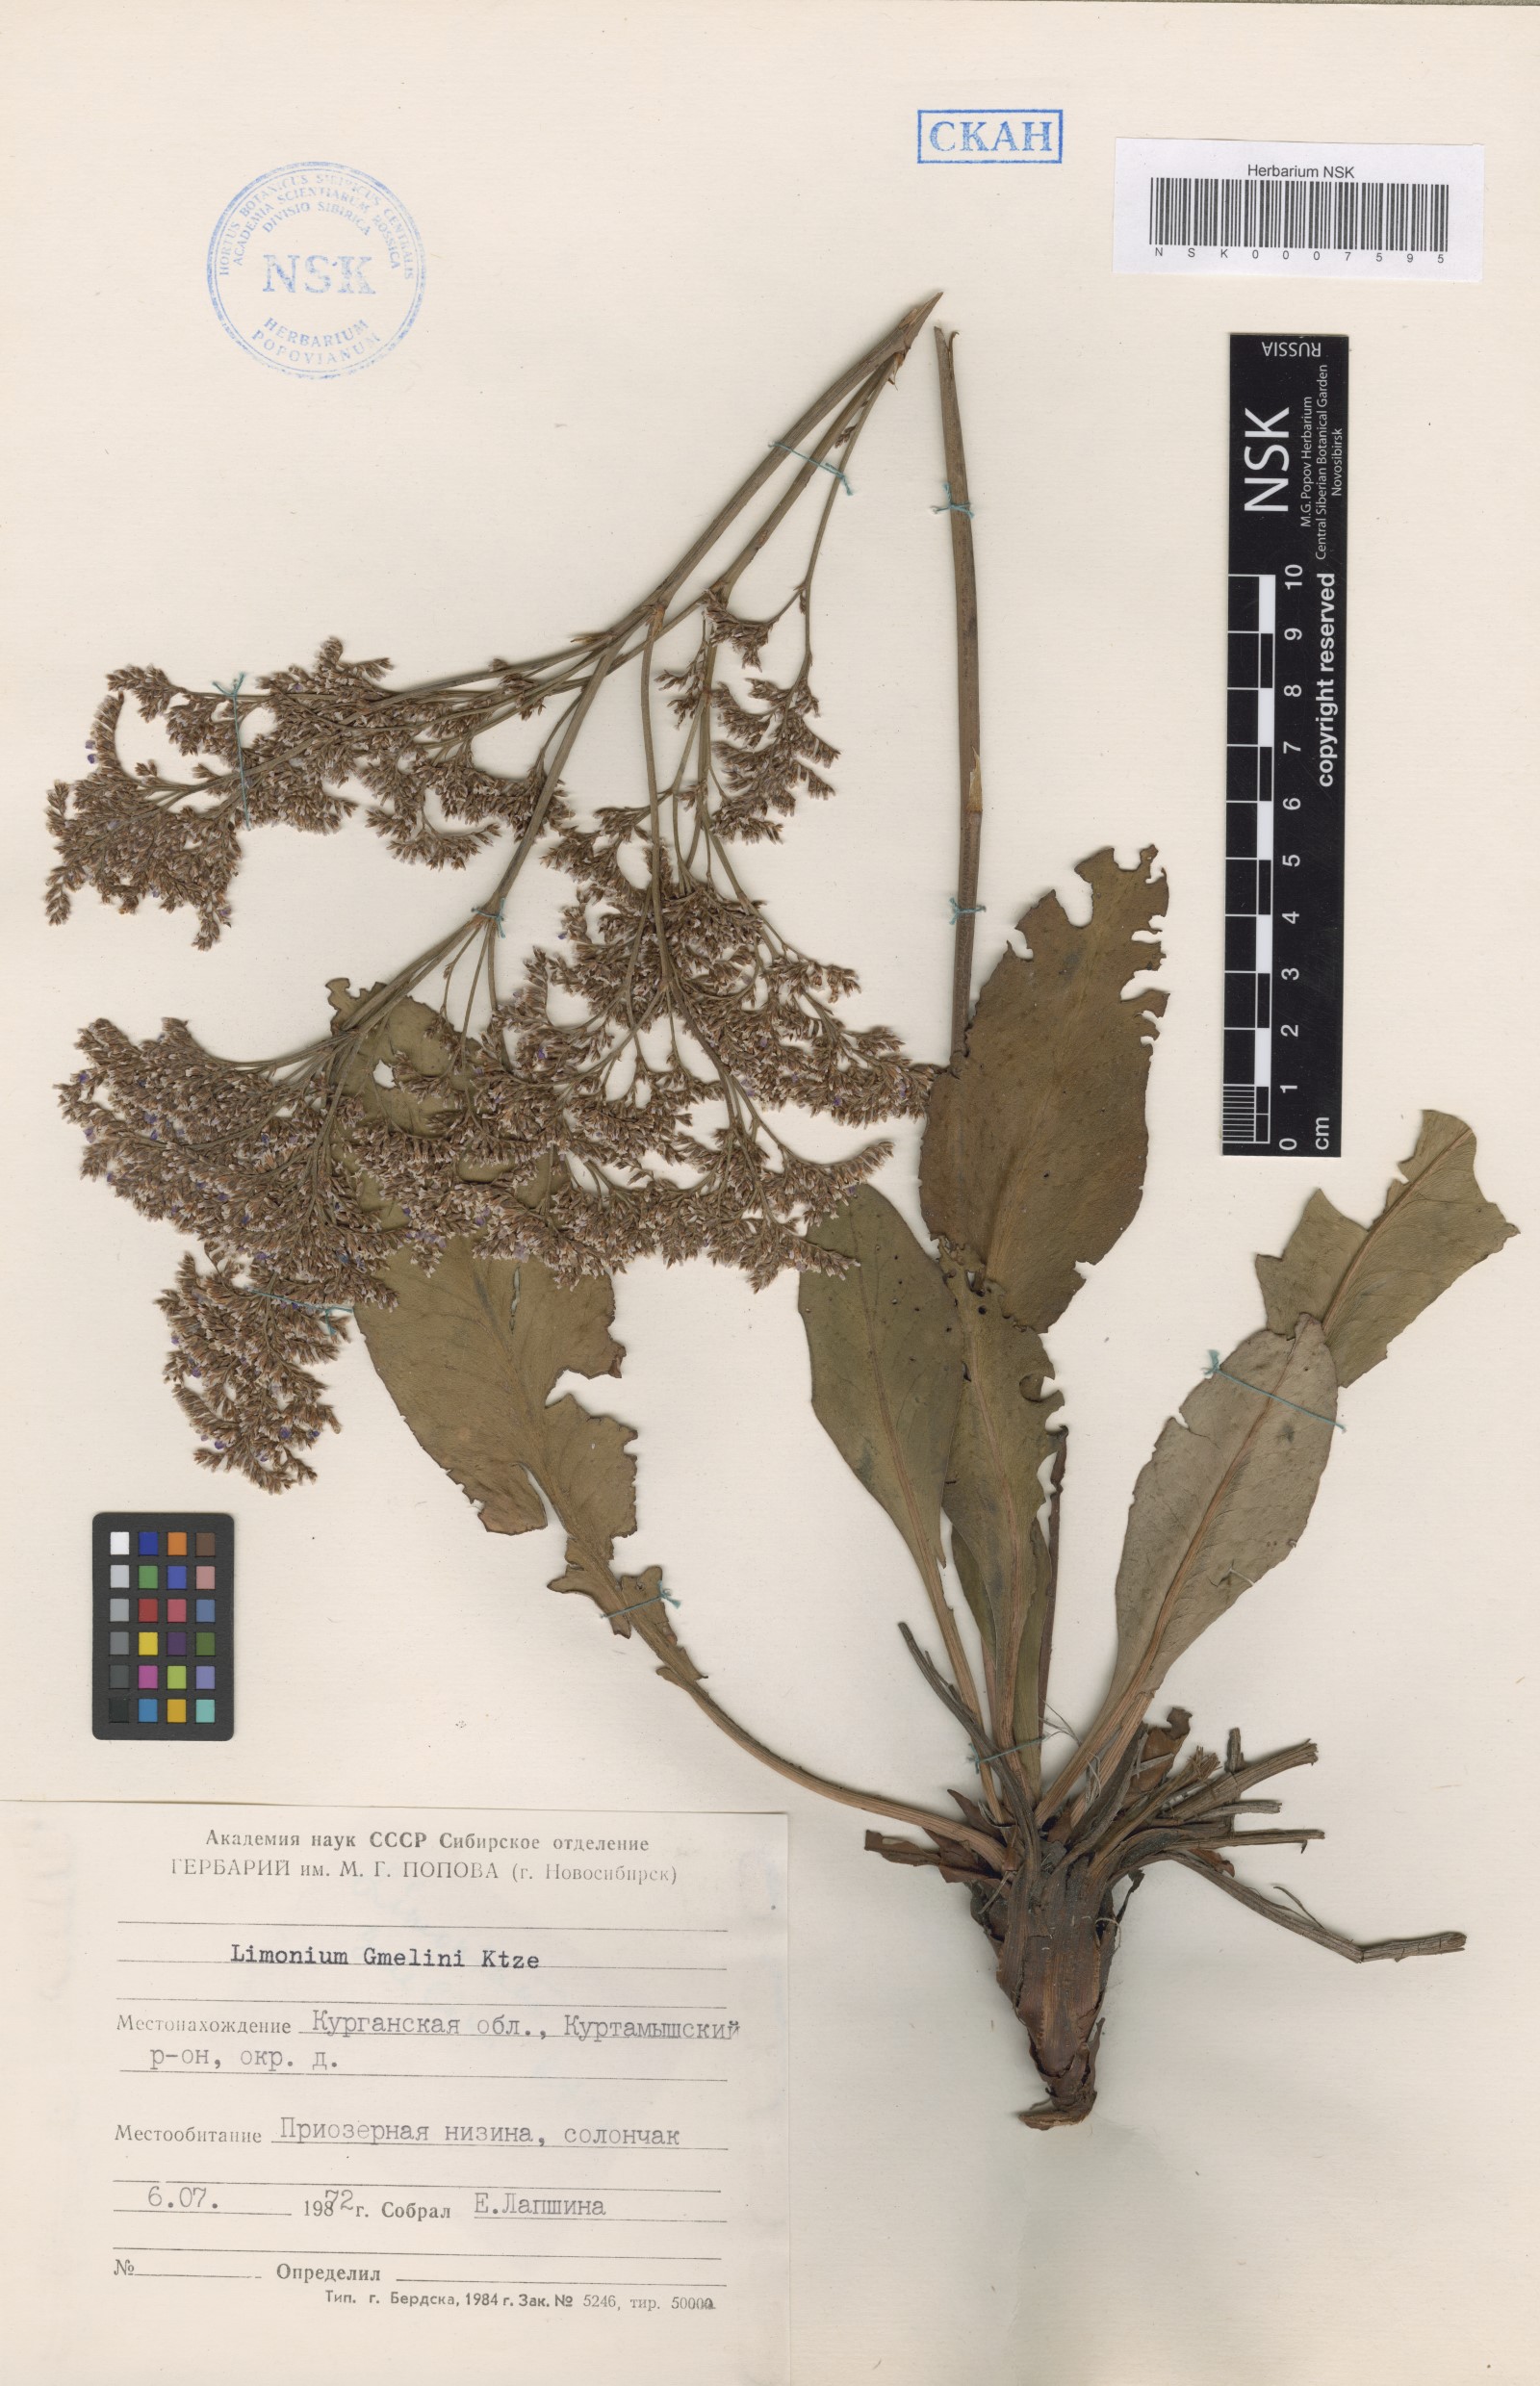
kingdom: Plantae
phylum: Tracheophyta
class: Magnoliopsida
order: Caryophyllales
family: Plumbaginaceae
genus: Limonium
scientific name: Limonium gmelini
